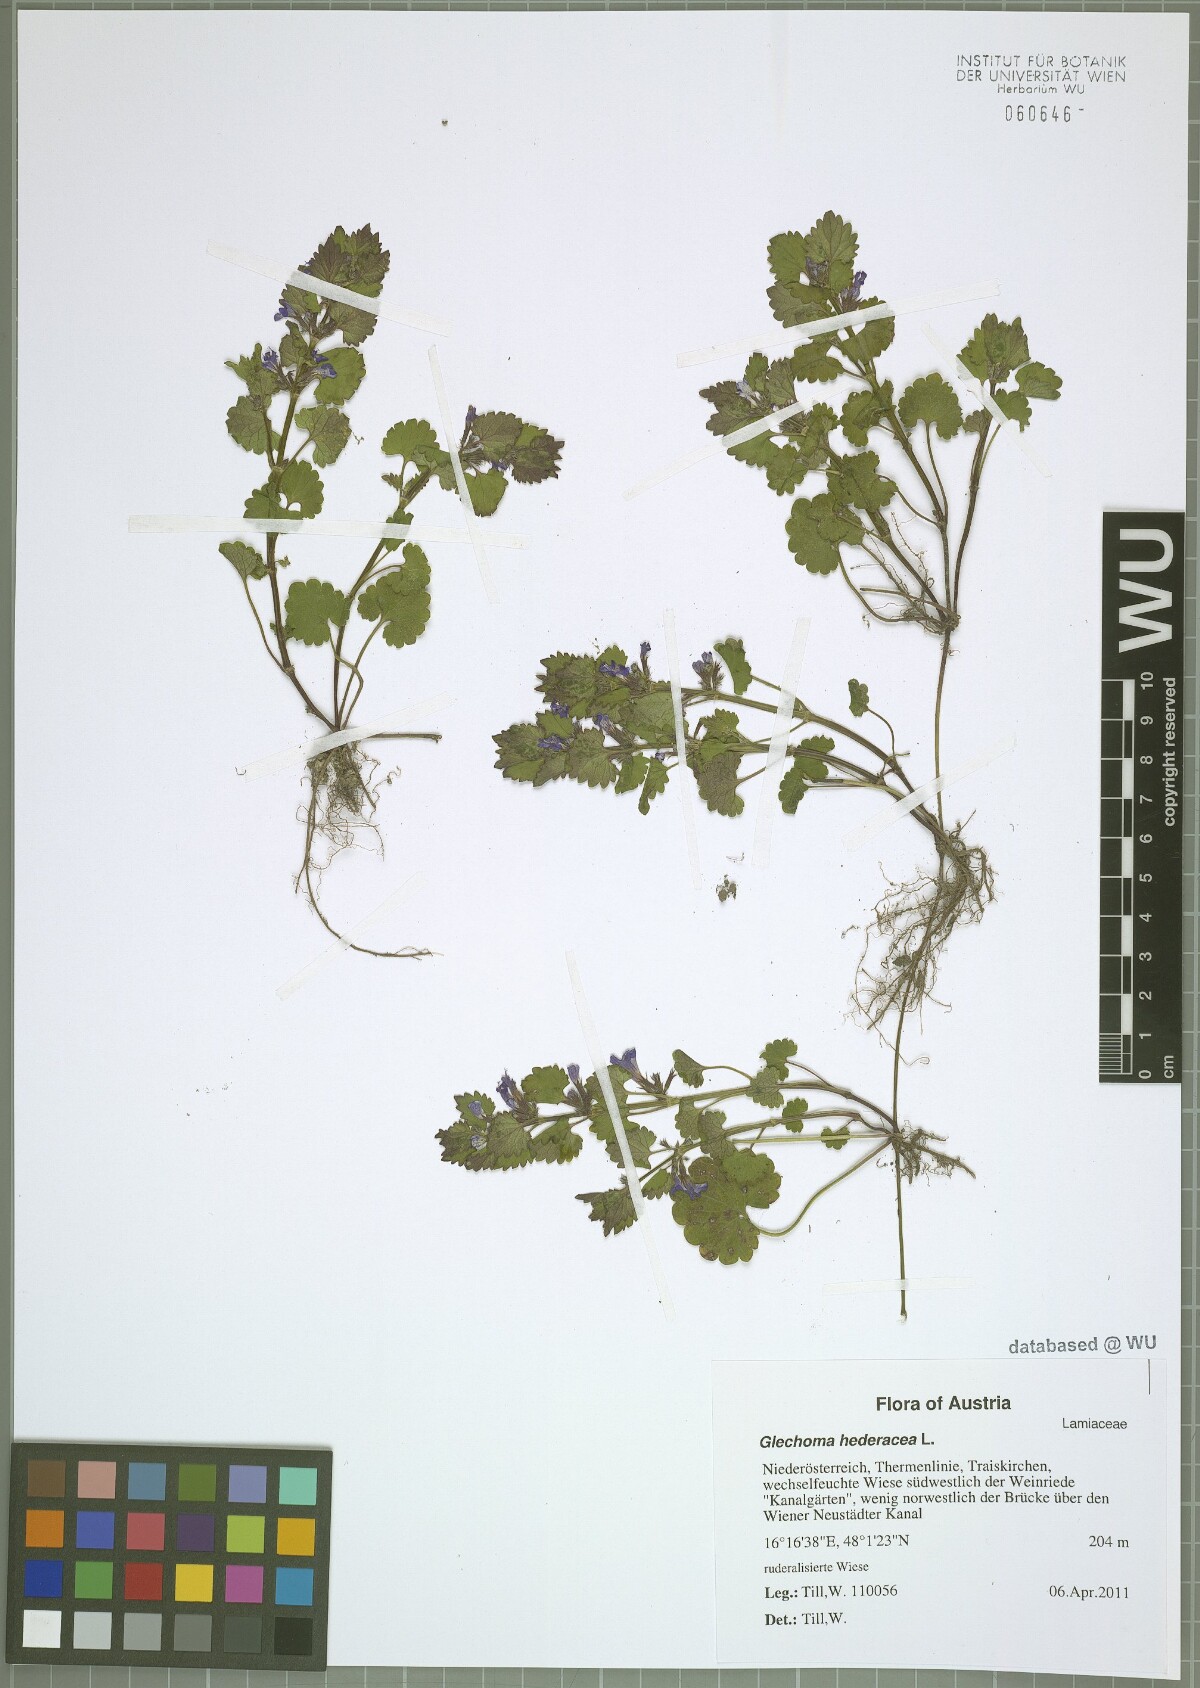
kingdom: Plantae
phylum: Tracheophyta
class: Magnoliopsida
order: Lamiales
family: Lamiaceae
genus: Glechoma
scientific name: Glechoma hederacea
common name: Ground ivy
